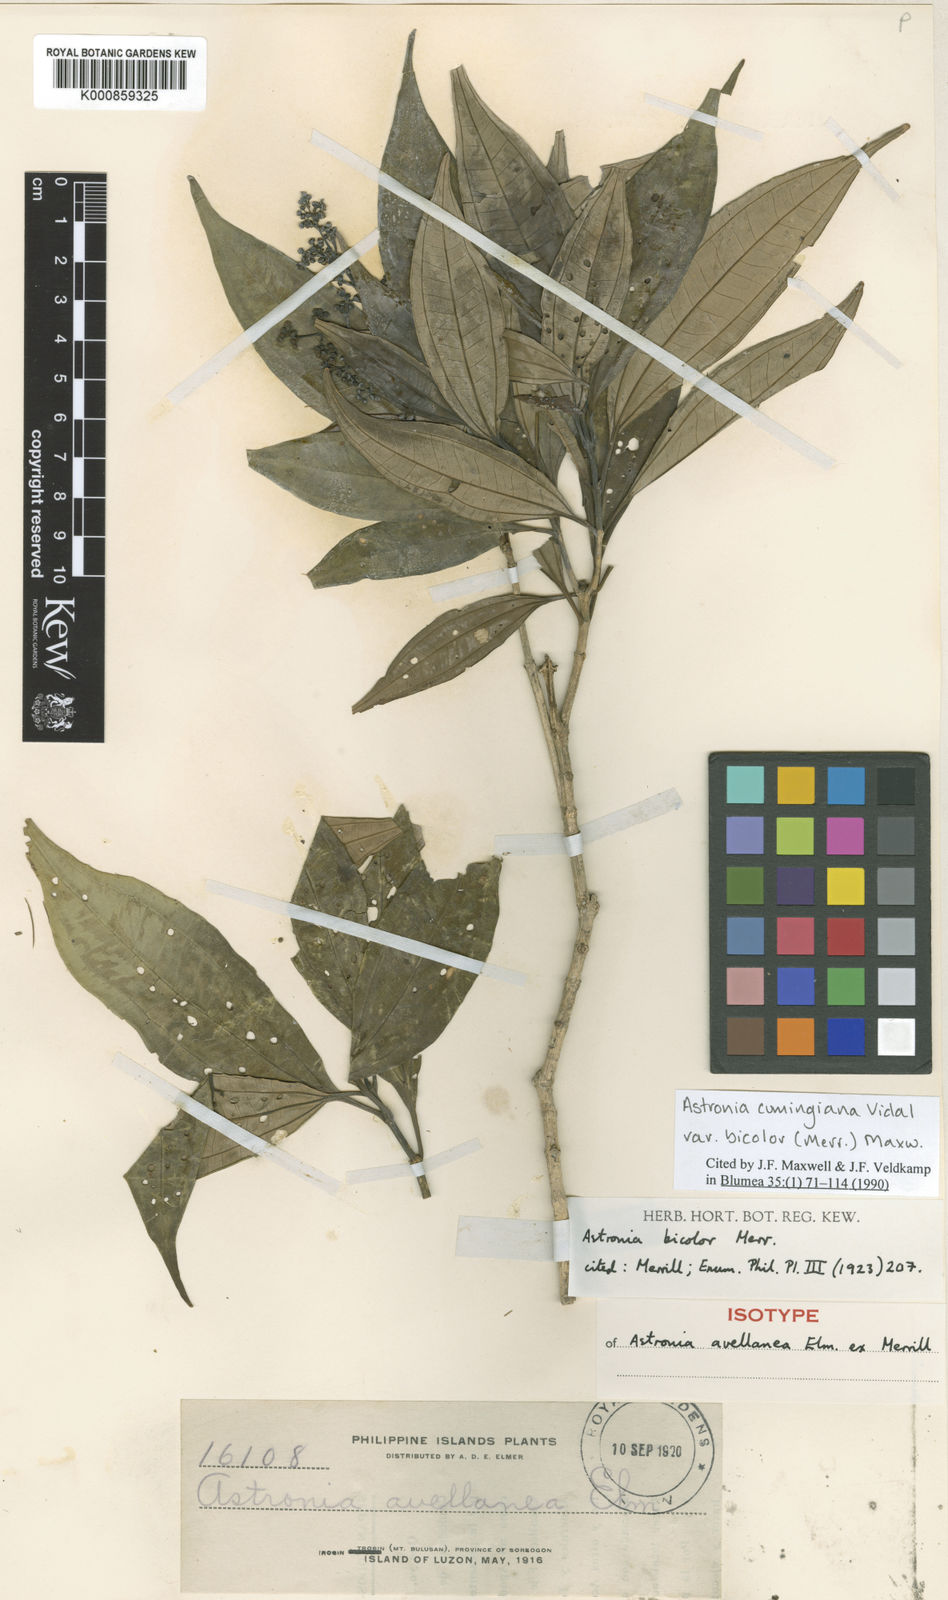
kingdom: Plantae
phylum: Tracheophyta
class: Magnoliopsida
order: Myrtales
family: Melastomataceae
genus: Astronia
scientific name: Astronia cumingiana
